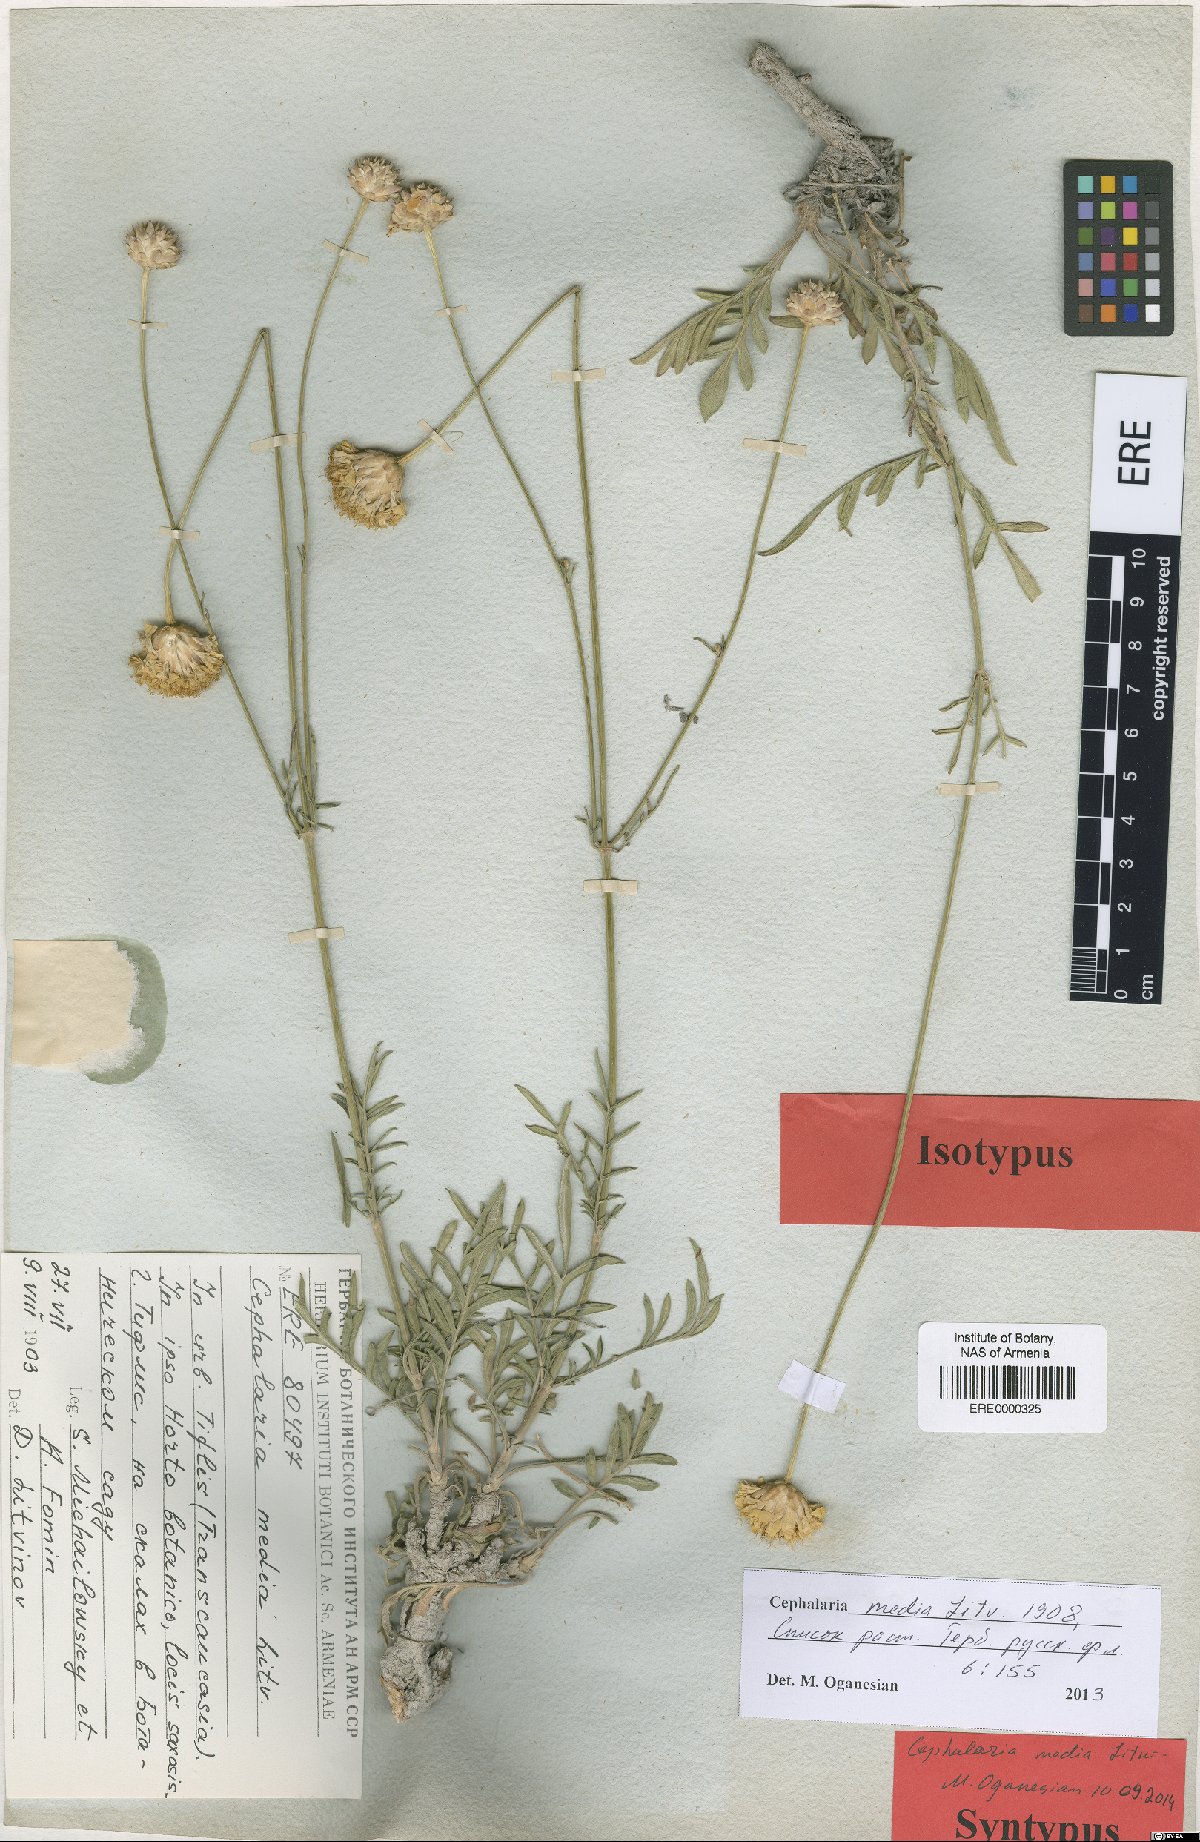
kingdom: Plantae
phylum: Tracheophyta
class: Magnoliopsida
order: Dipsacales
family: Caprifoliaceae
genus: Cephalaria
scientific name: Cephalaria media
